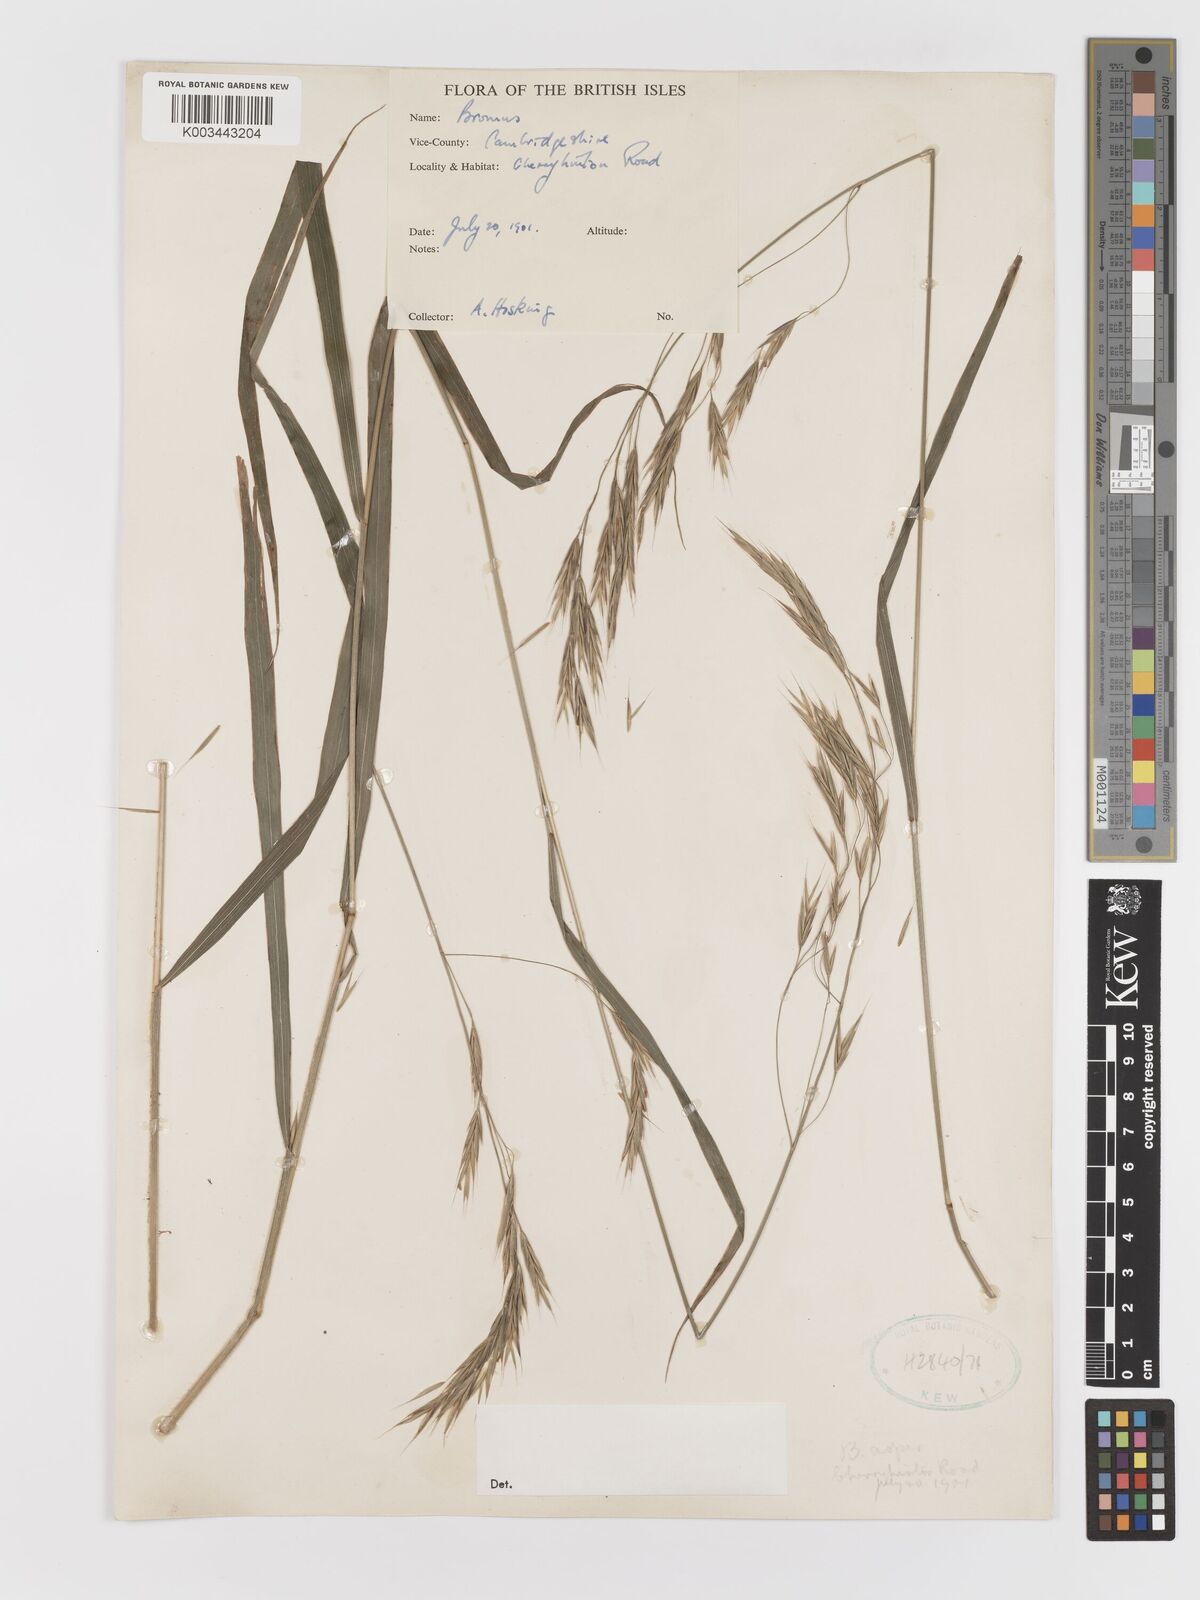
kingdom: Plantae
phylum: Tracheophyta
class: Liliopsida
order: Poales
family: Poaceae
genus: Bromus
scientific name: Bromus
